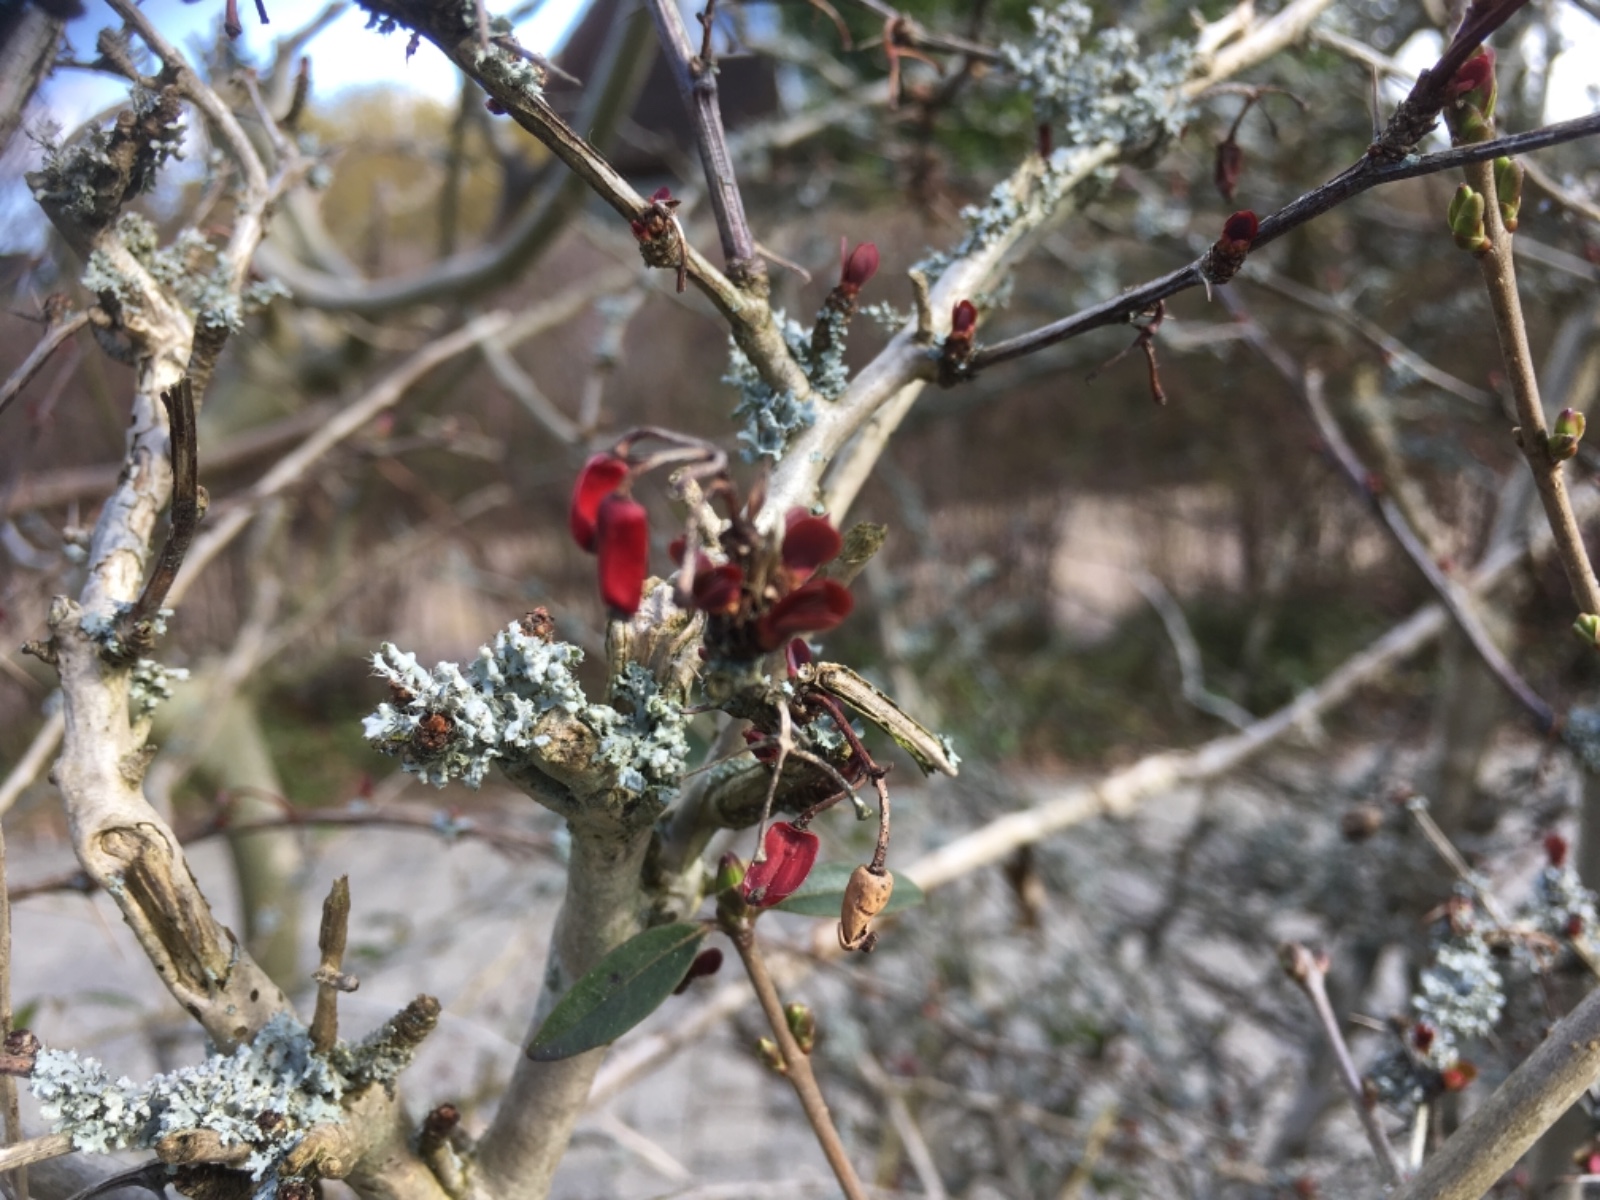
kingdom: Fungi
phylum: Basidiomycota
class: Agaricomycetes
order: Auriculariales
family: Auriculariaceae
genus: Auricularia
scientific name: Auricularia auricula-judae
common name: almindelig judasøre
